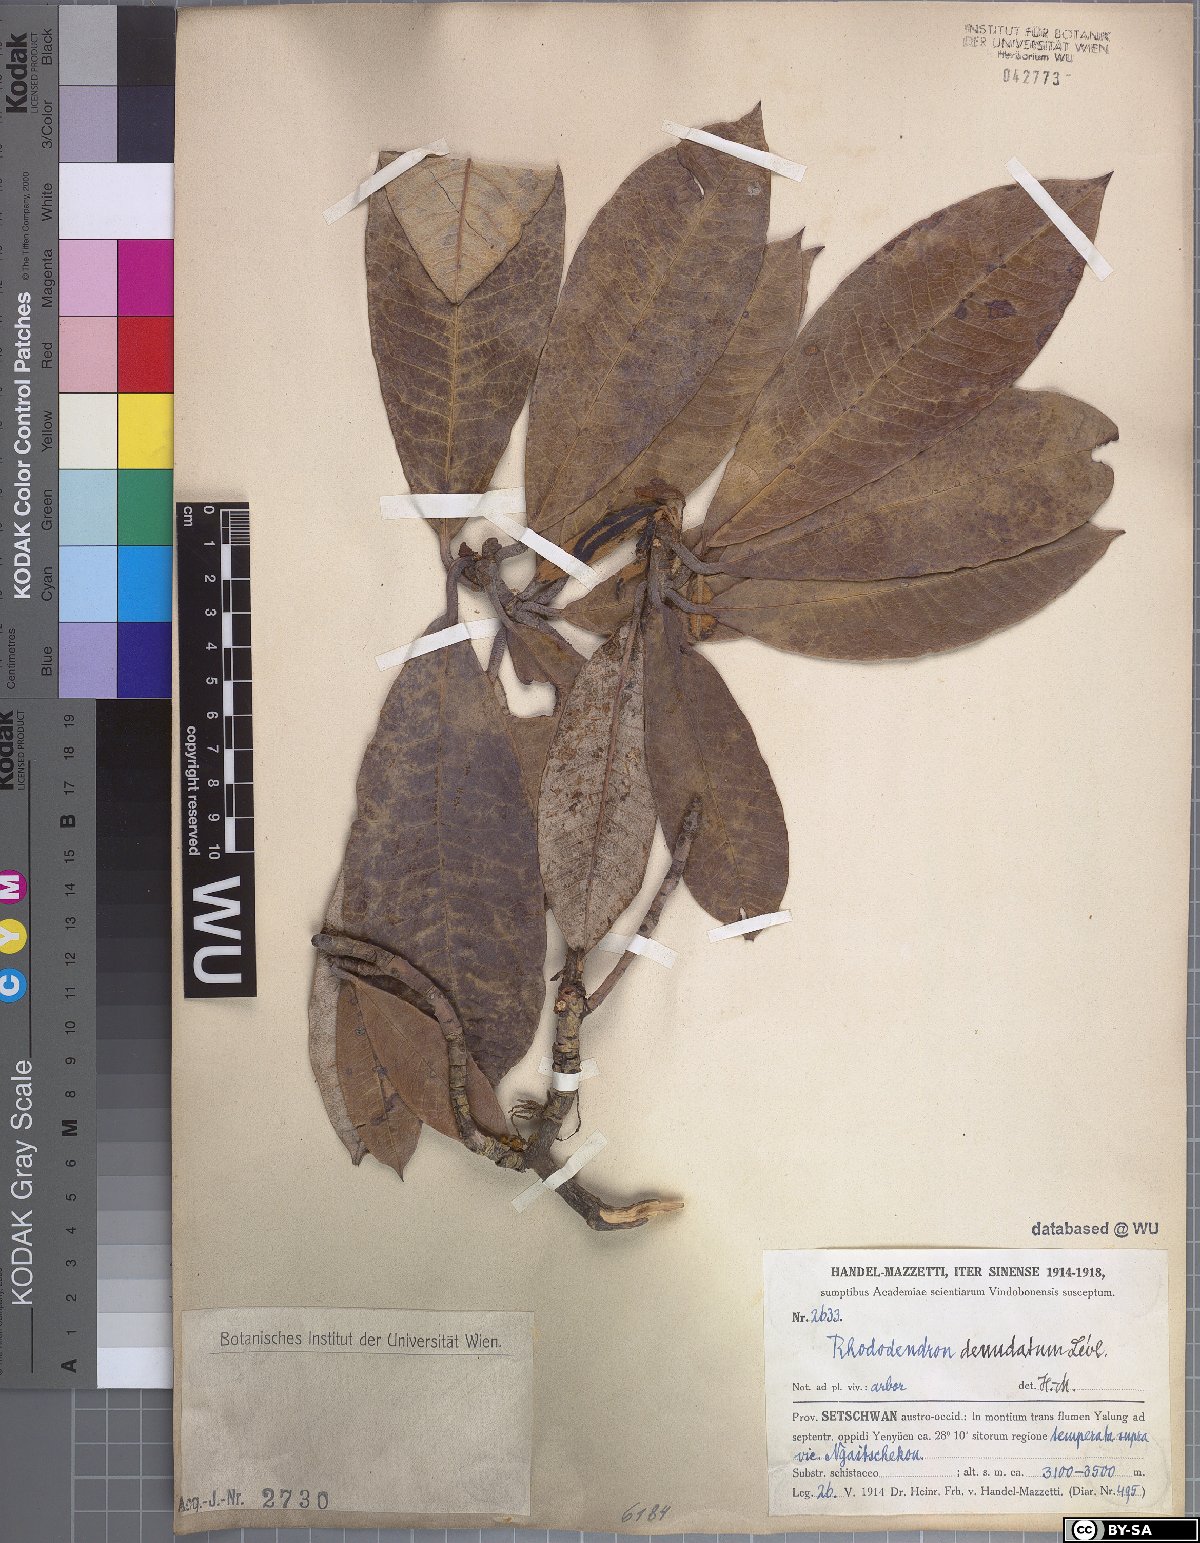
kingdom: Plantae
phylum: Tracheophyta
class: Magnoliopsida
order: Ericales
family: Ericaceae
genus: Rhododendron
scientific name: Rhododendron denudatum
